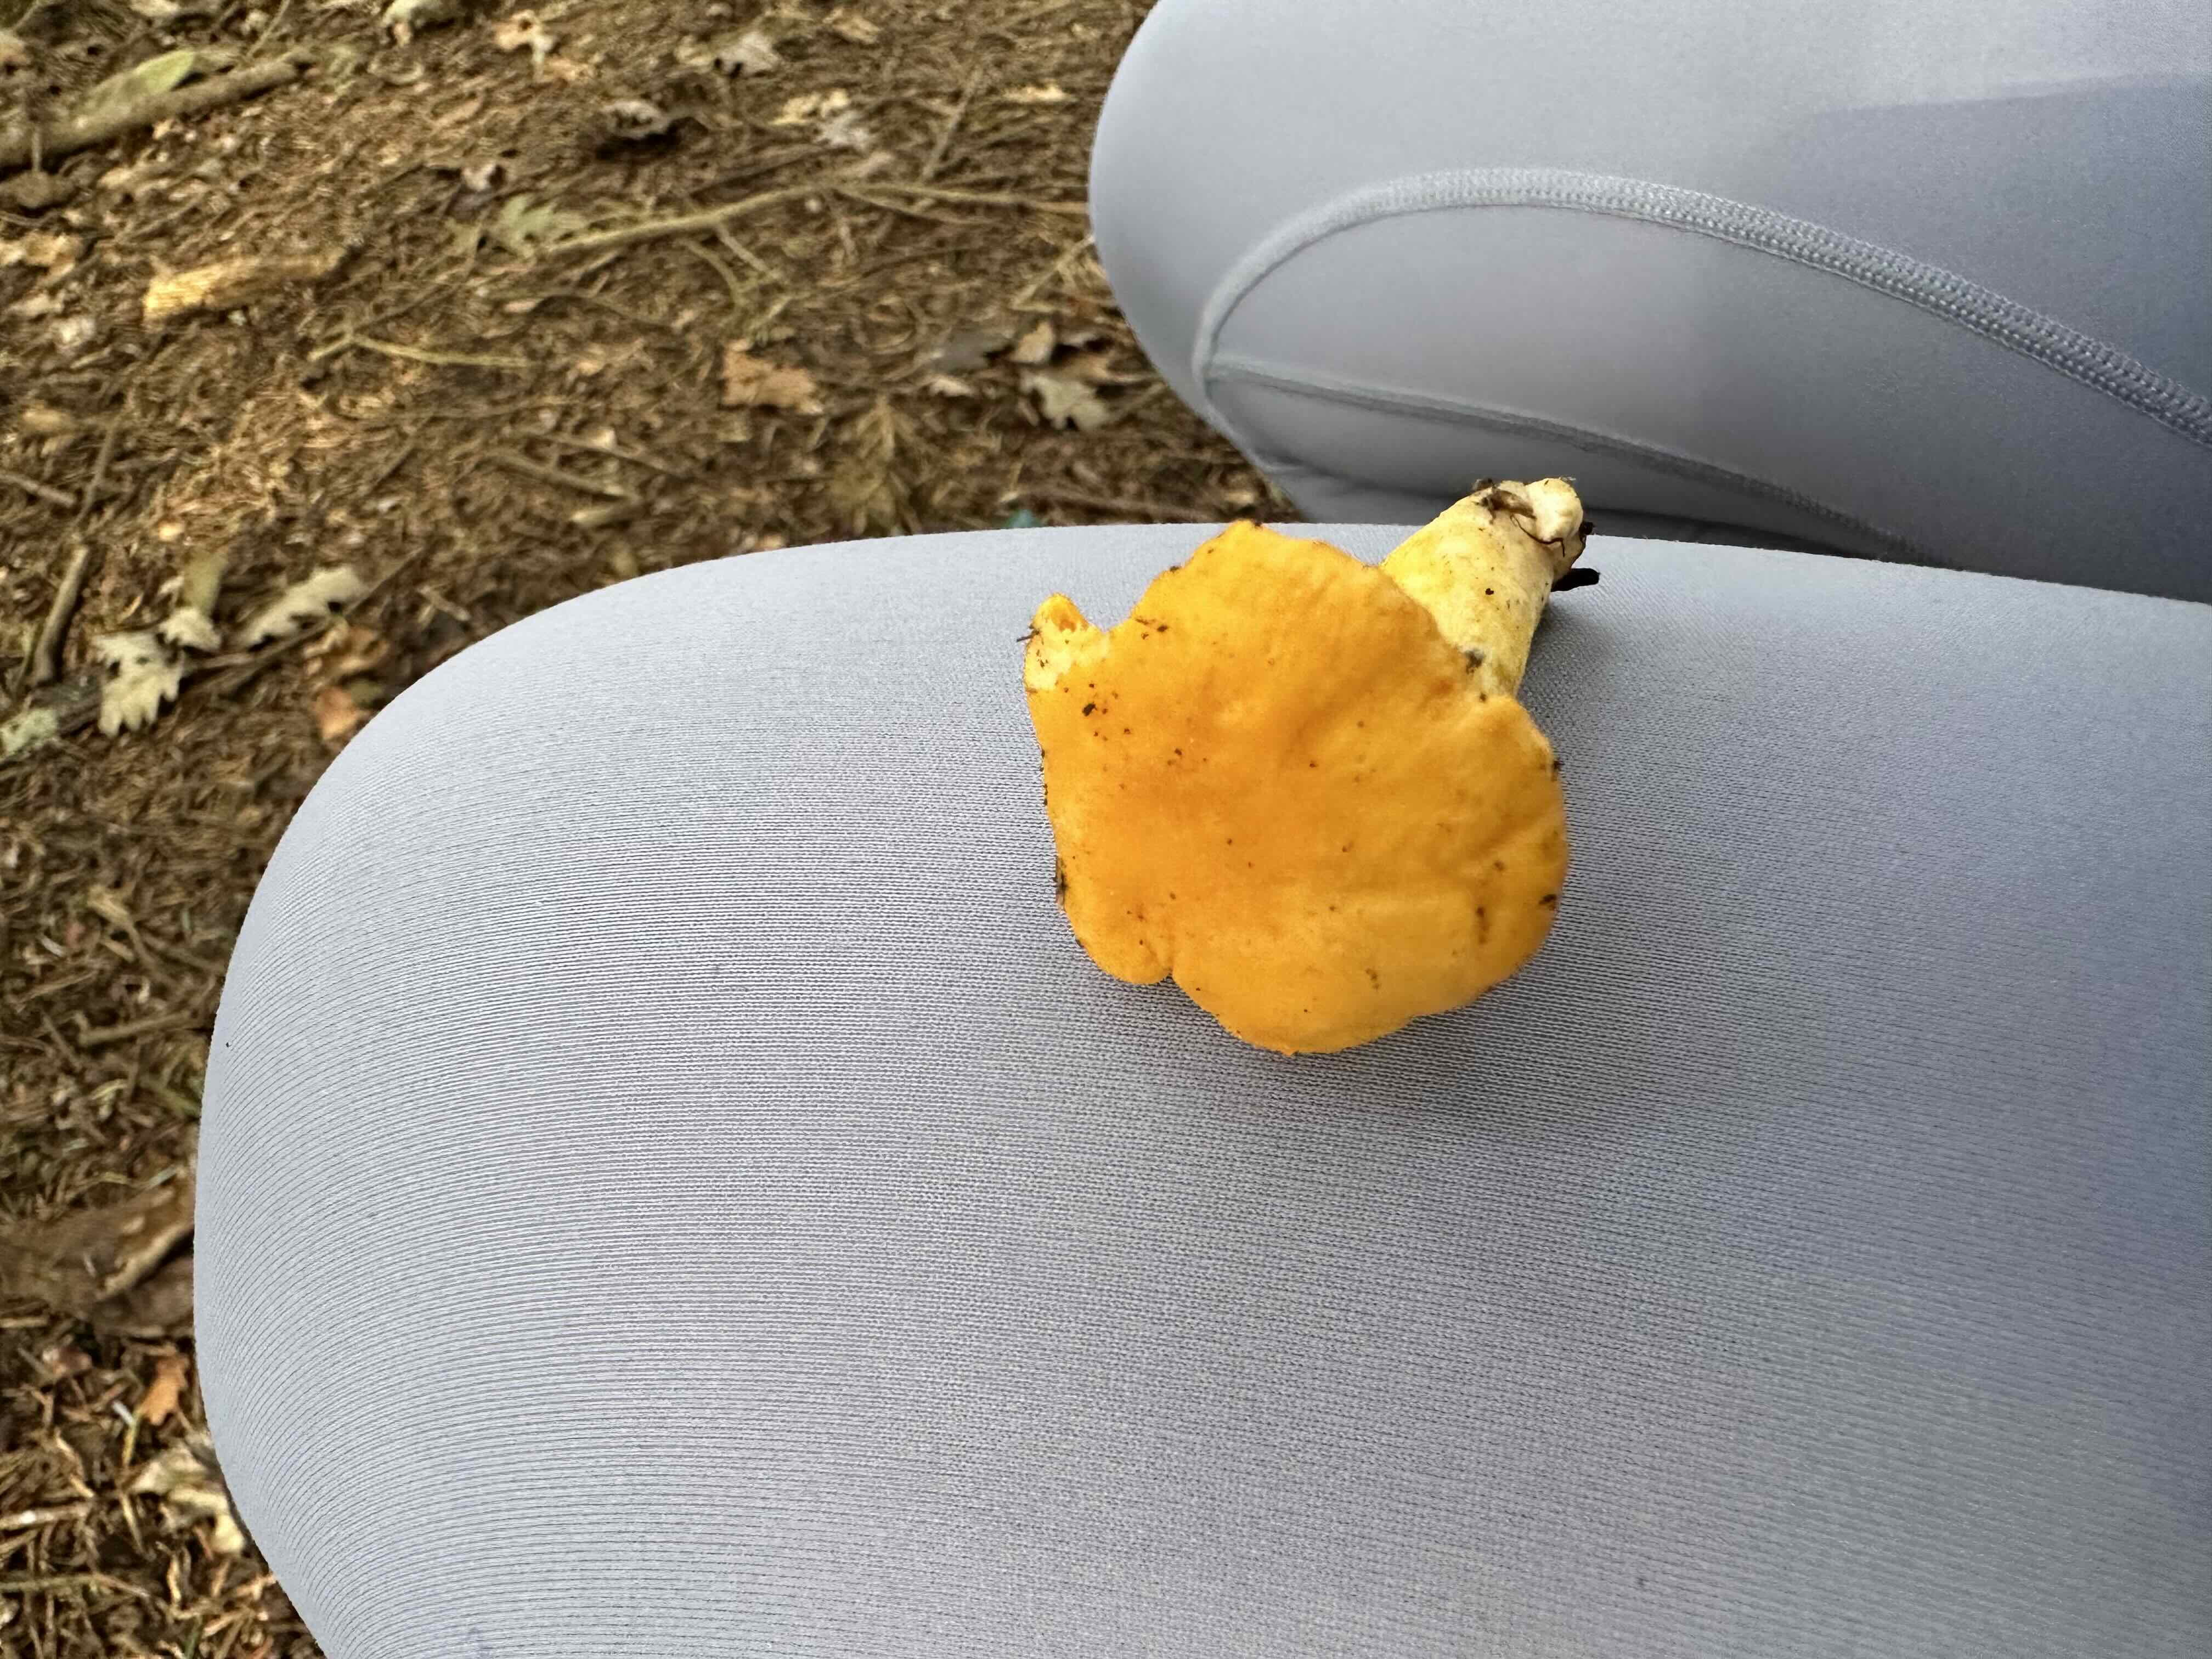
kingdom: Fungi
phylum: Basidiomycota
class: Agaricomycetes
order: Cantharellales
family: Hydnaceae
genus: Cantharellus
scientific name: Cantharellus cibarius
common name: almindelig kantarel
